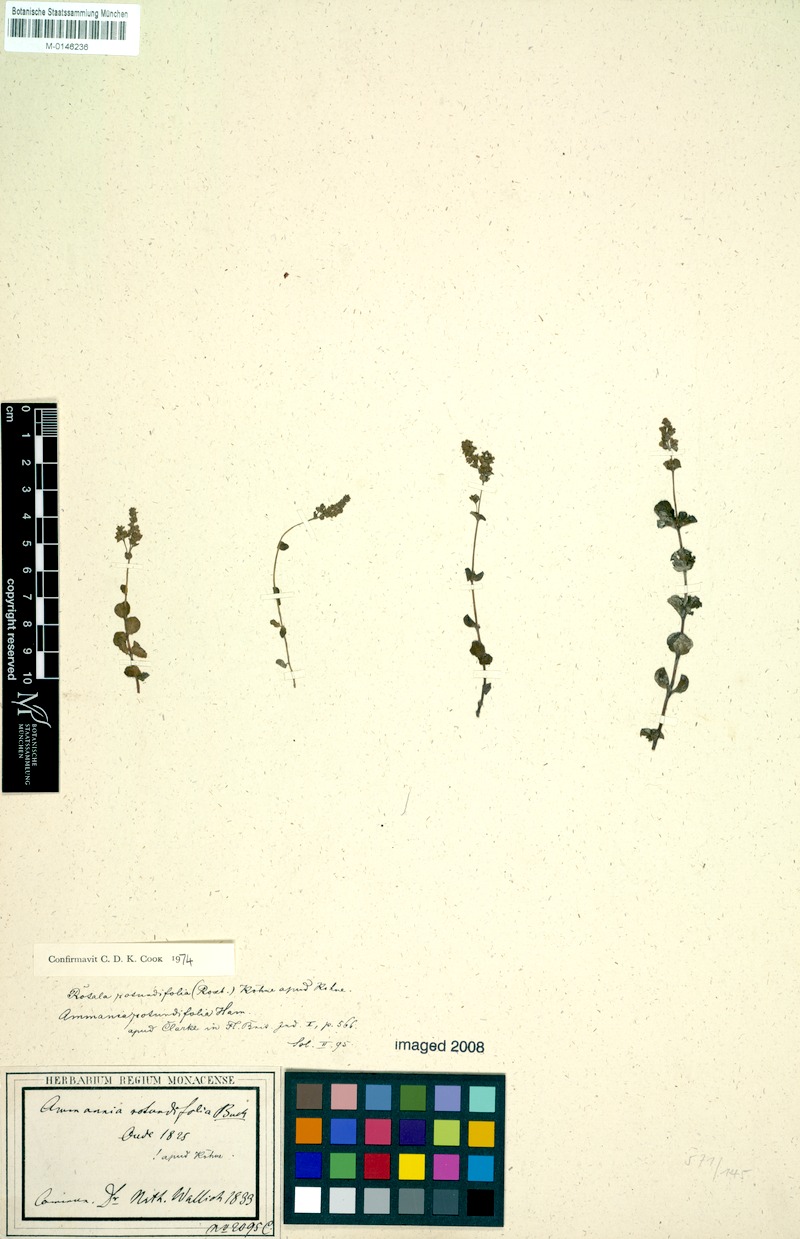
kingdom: Plantae
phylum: Tracheophyta
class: Magnoliopsida
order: Myrtales
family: Lythraceae
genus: Rotala
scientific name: Rotala rotundifolia
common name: Roundleaf toothcup
